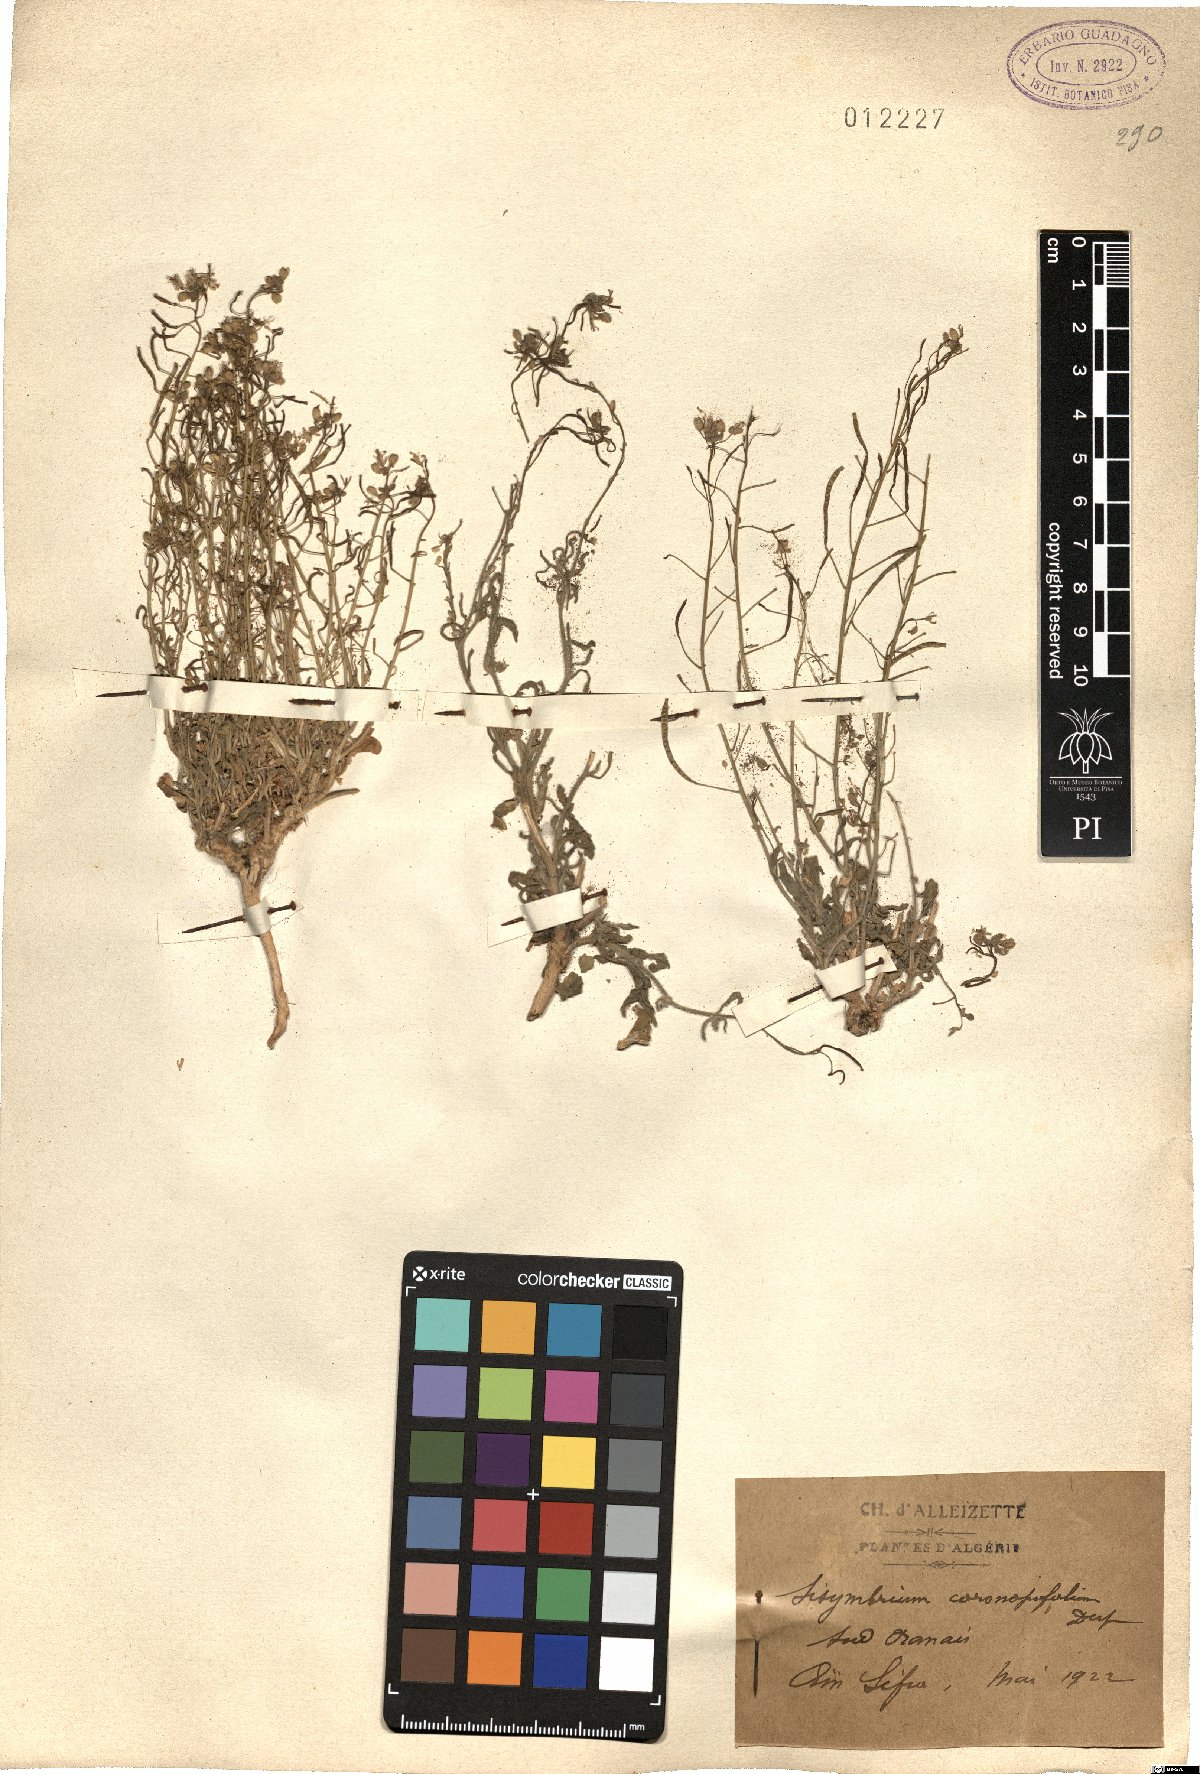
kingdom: Plantae
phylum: Tracheophyta
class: Magnoliopsida
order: Brassicales
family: Brassicaceae
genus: Nasturtiopsis
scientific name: Nasturtiopsis coronopifolia
